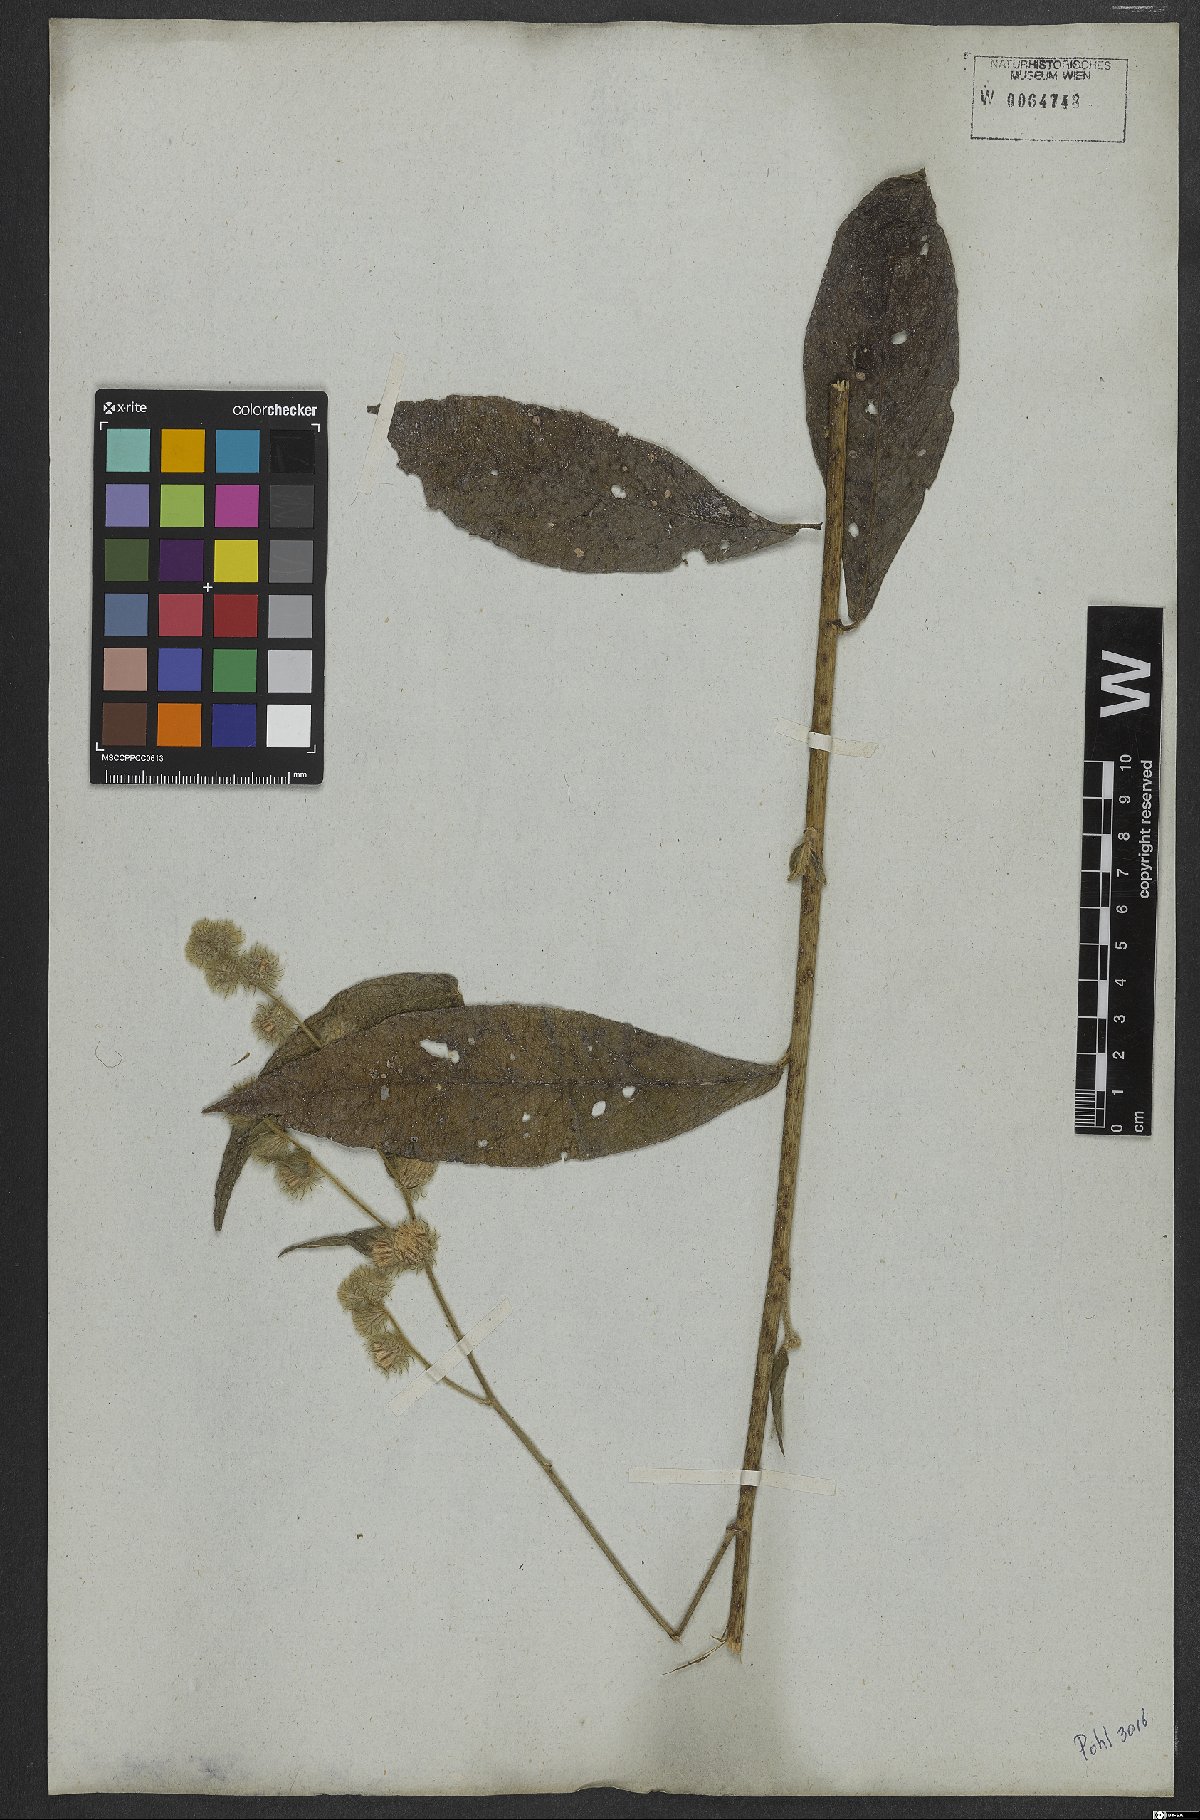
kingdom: Plantae
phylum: Tracheophyta
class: Magnoliopsida
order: Asterales
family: Asteraceae
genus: Lepidaploa
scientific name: Lepidaploa eriolepis
